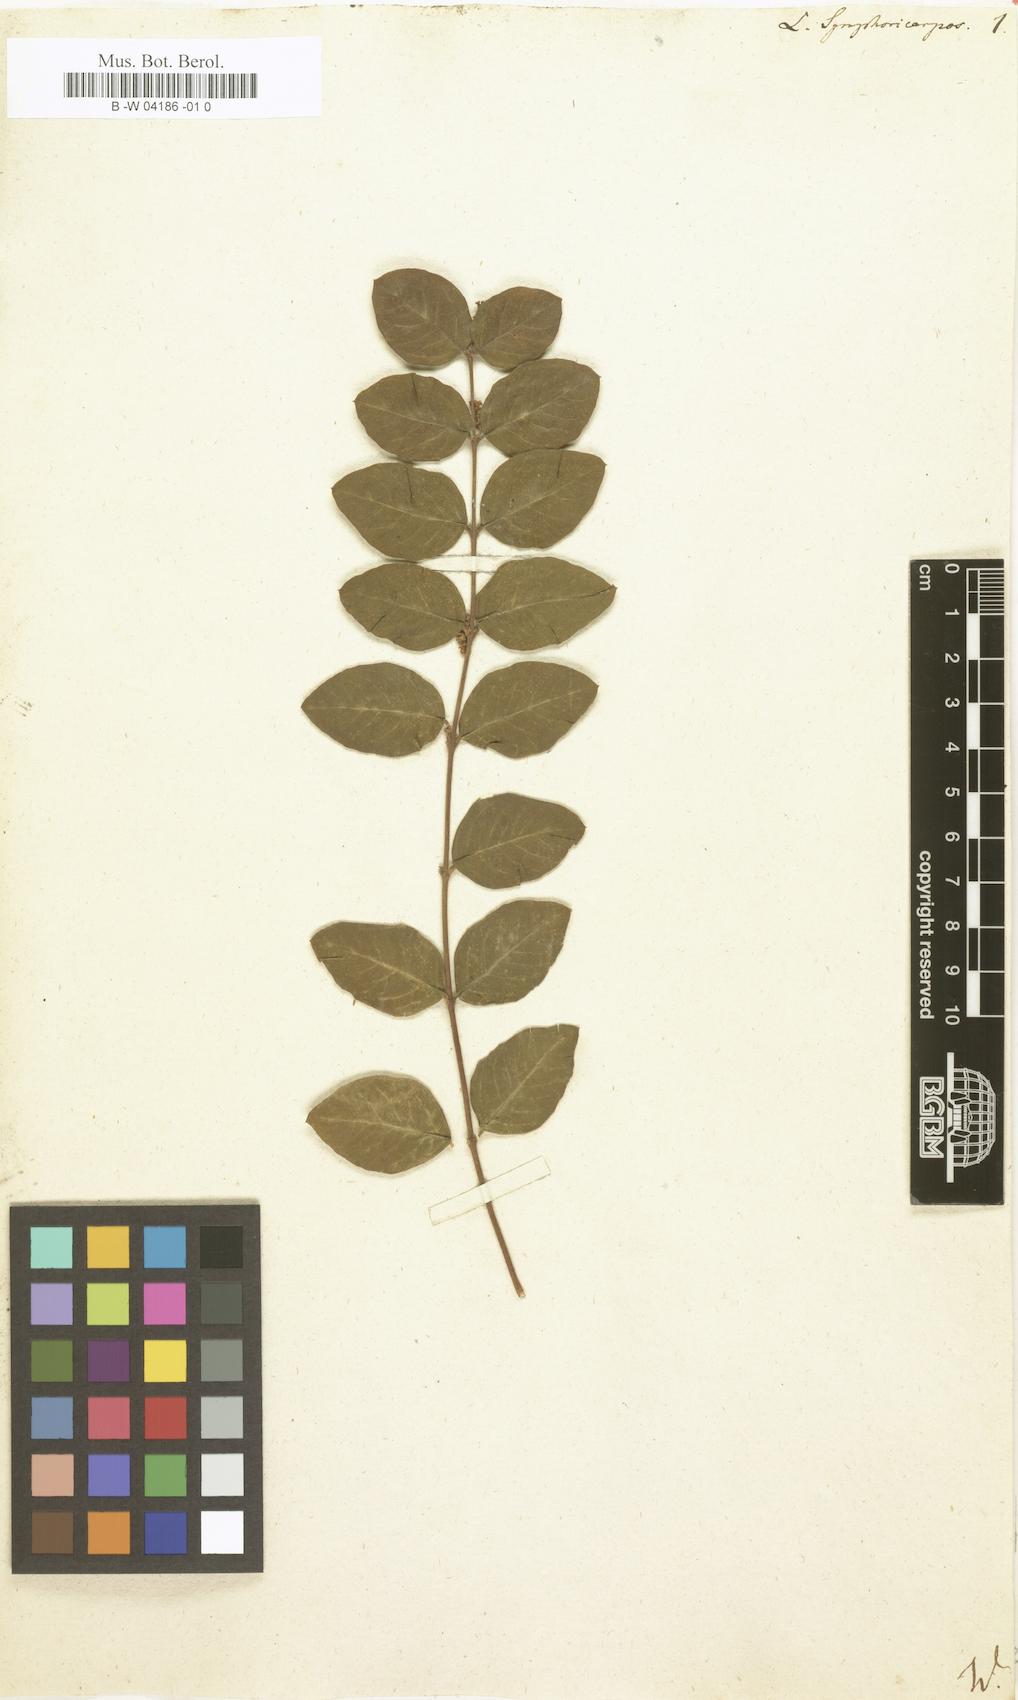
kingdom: Plantae
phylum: Tracheophyta
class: Magnoliopsida
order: Dipsacales
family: Caprifoliaceae
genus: Symphoricarpos
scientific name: Symphoricarpos orbiculatus
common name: Coralberry
